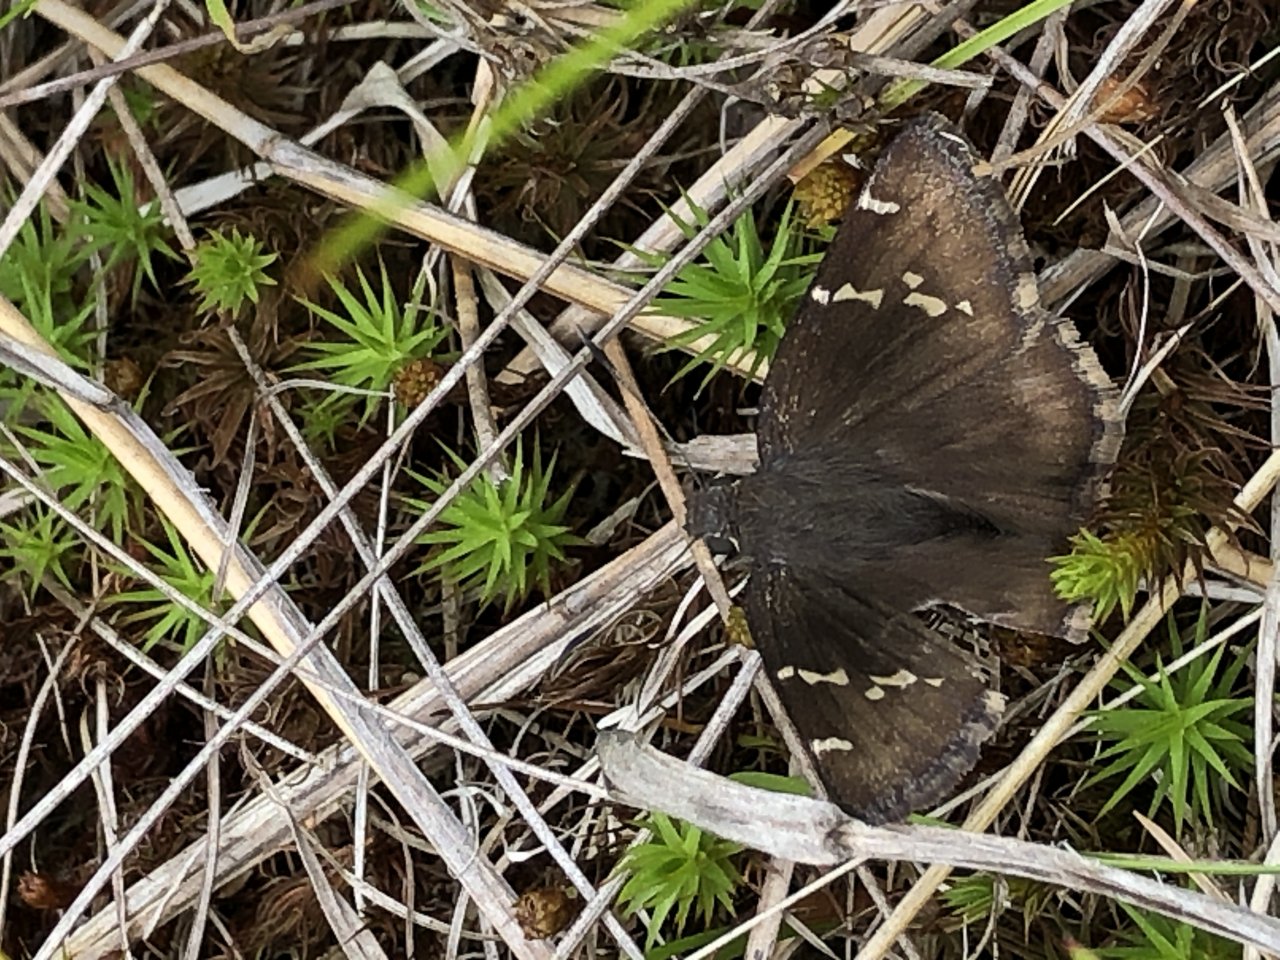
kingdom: Animalia
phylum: Arthropoda
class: Insecta
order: Lepidoptera
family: Hesperiidae
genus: Autochton
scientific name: Autochton
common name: Southern Cloudywing
